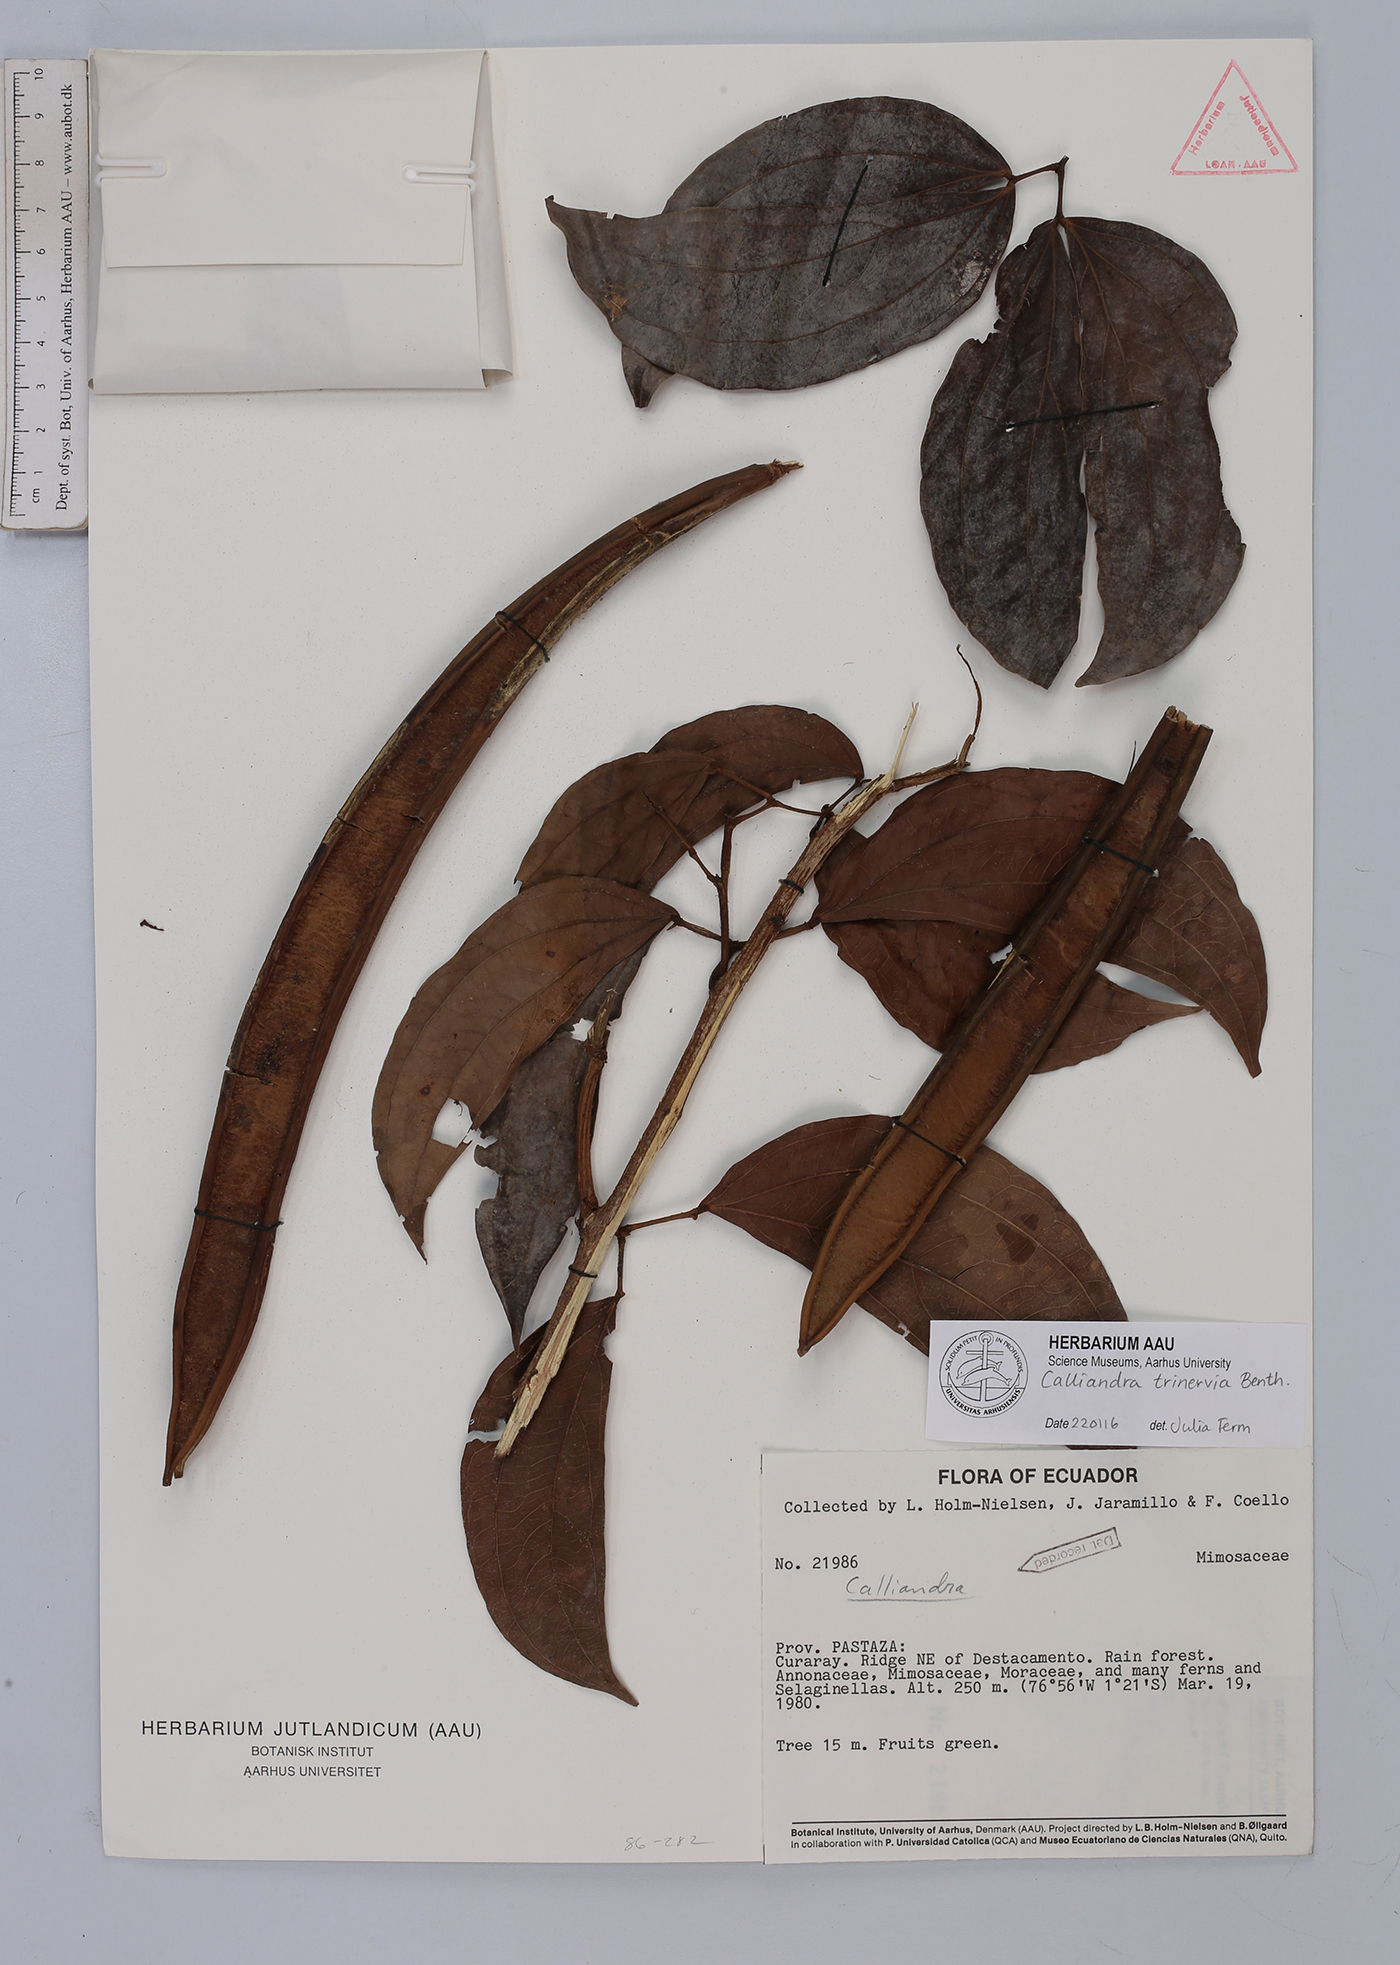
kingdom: Plantae
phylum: Tracheophyta
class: Magnoliopsida
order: Fabales
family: Fabaceae
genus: Calliandra
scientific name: Calliandra trinervia
